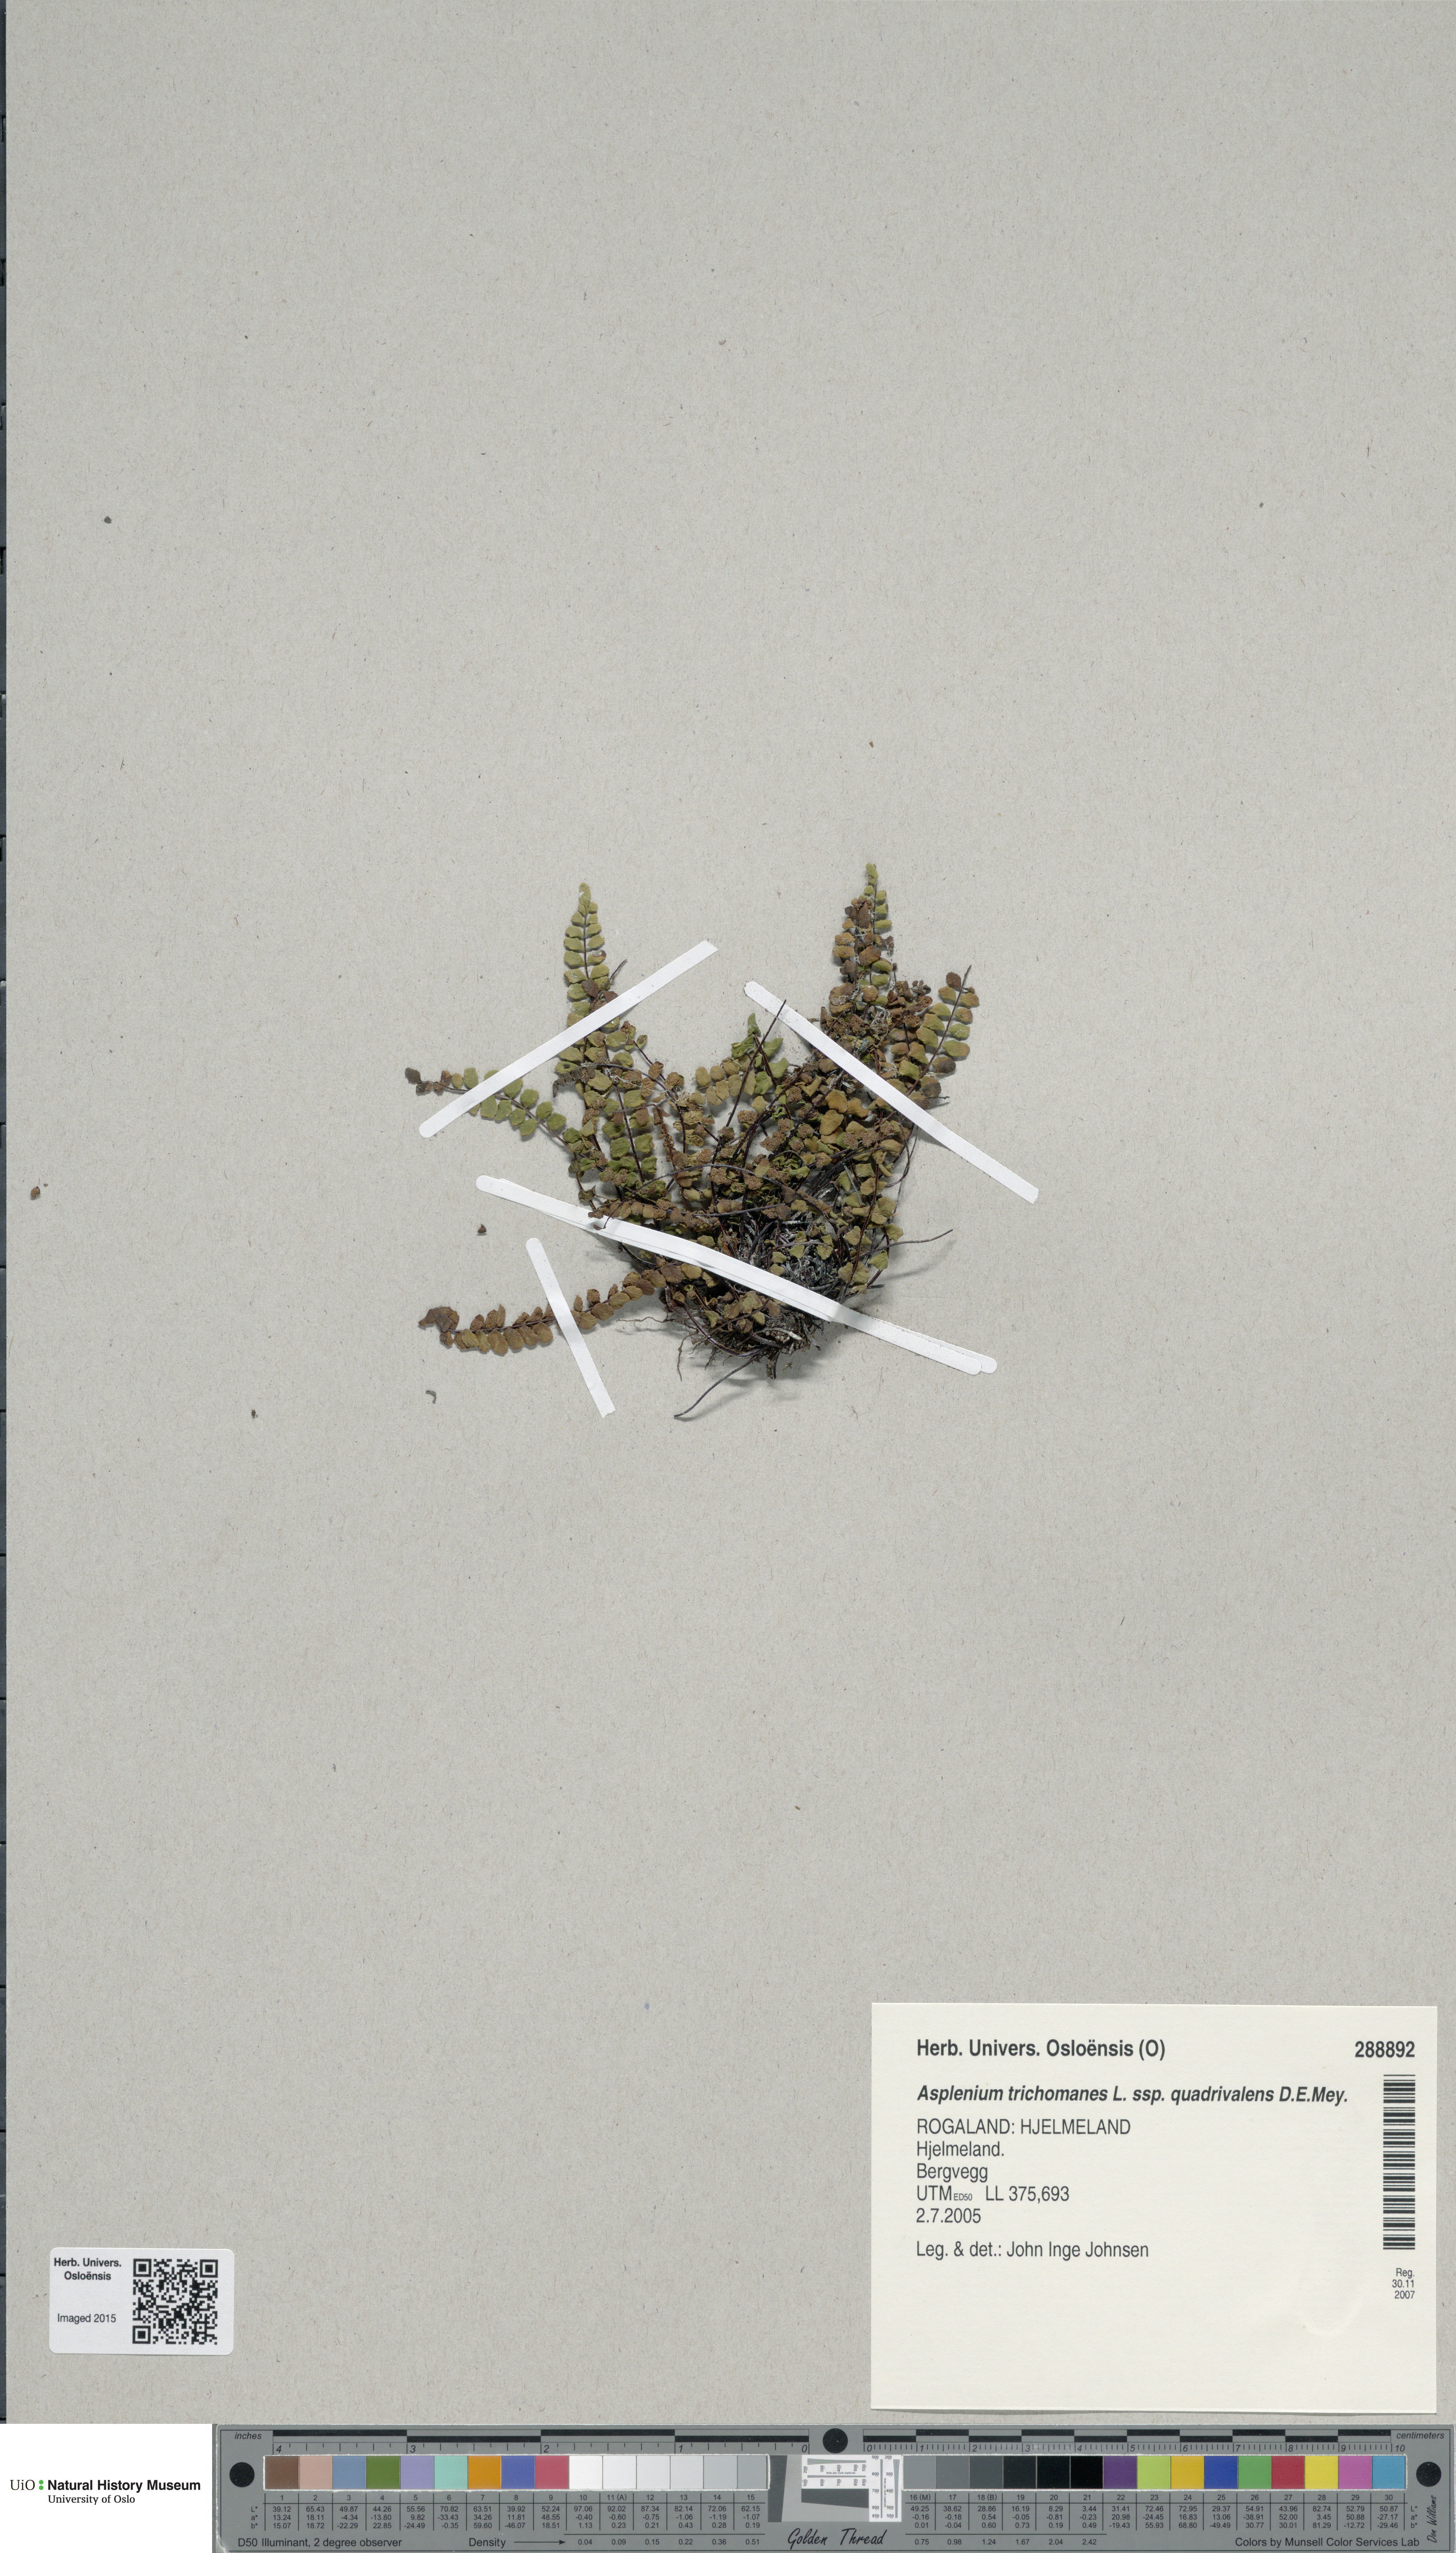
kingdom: Plantae
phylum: Tracheophyta
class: Polypodiopsida
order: Polypodiales
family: Aspleniaceae
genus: Asplenium
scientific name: Asplenium quadrivalens
